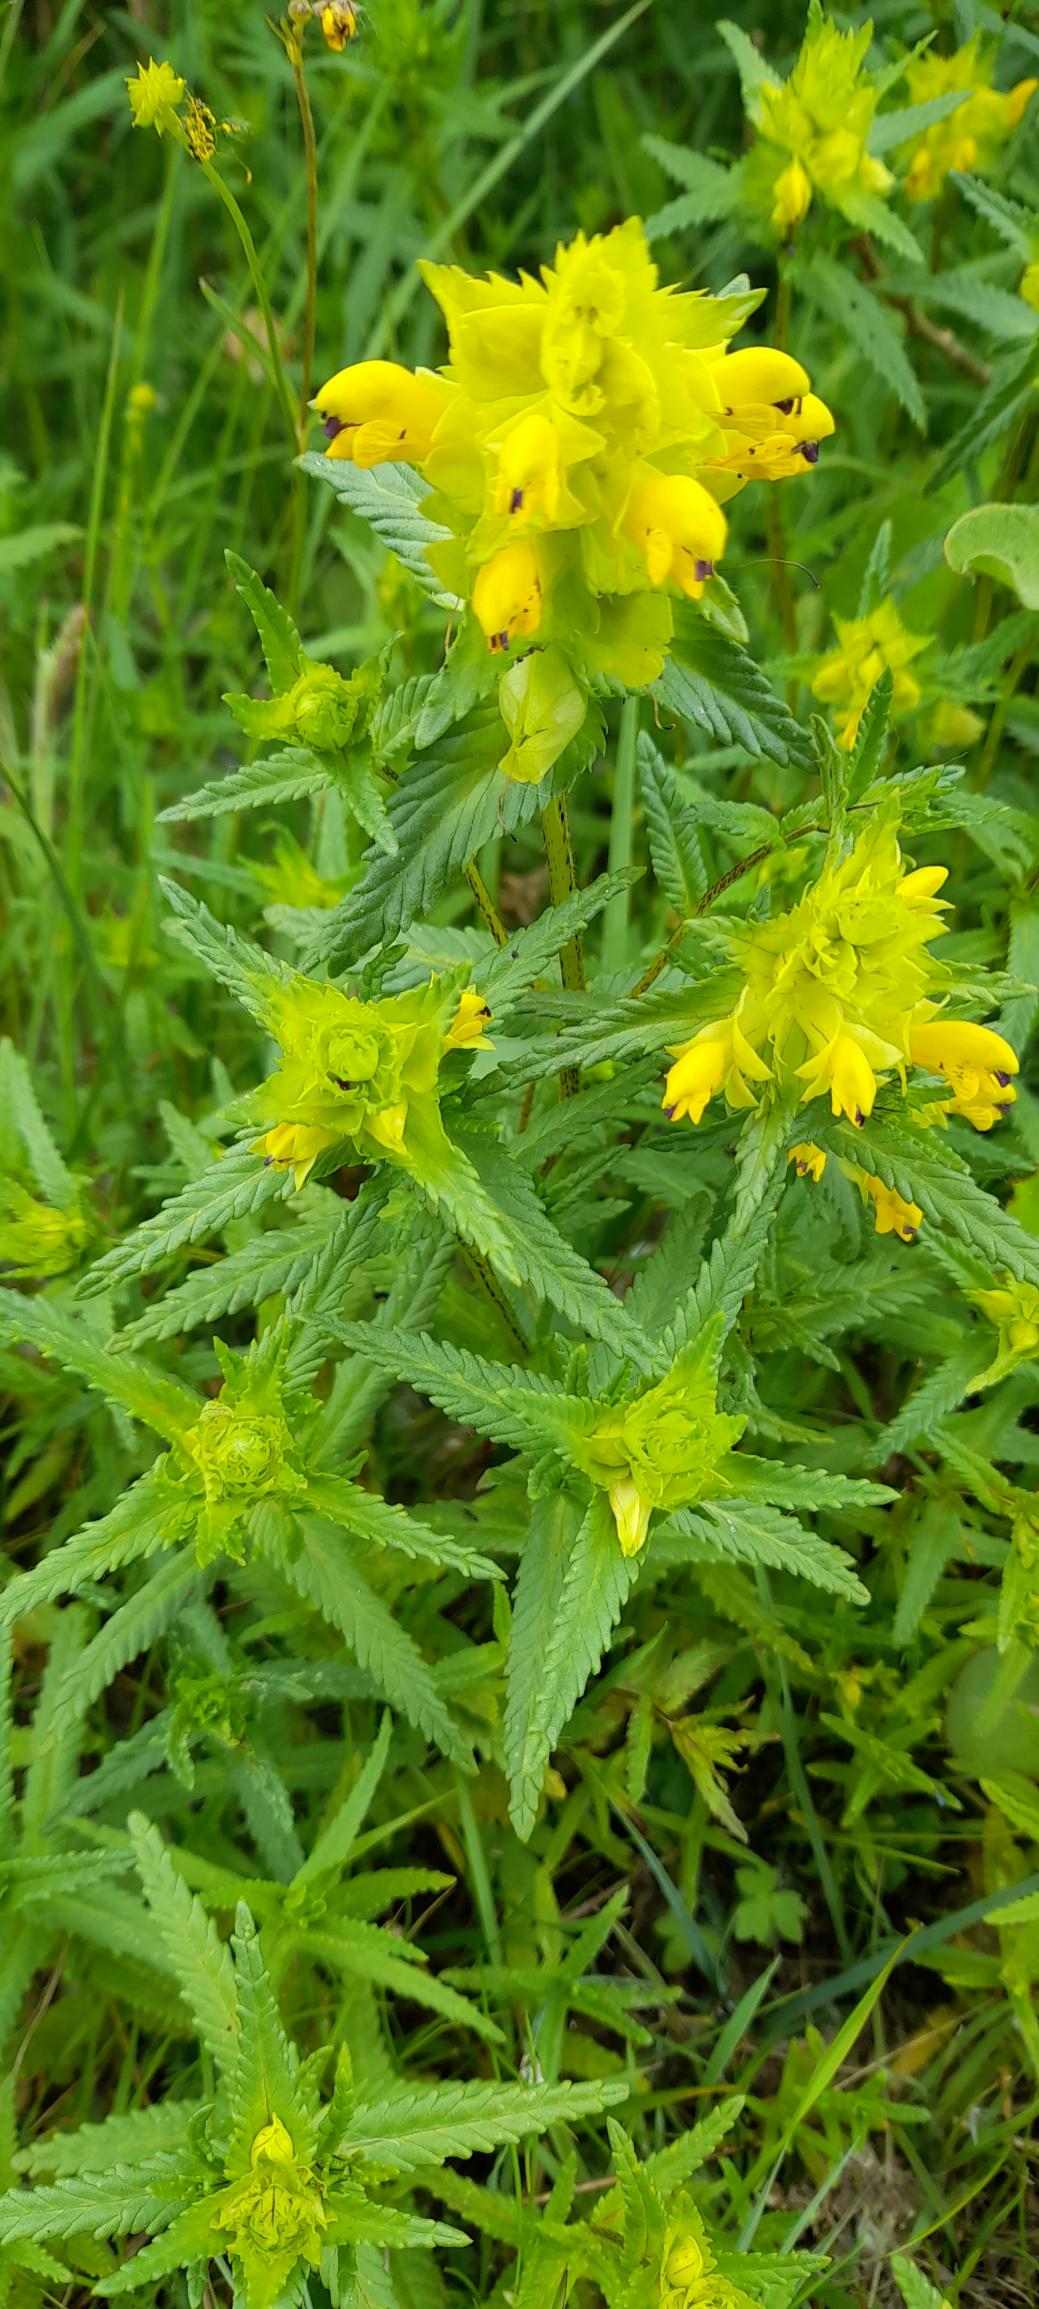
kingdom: Plantae
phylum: Tracheophyta
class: Magnoliopsida
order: Lamiales
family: Orobanchaceae
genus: Rhinanthus
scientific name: Rhinanthus
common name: Stor skjaller
